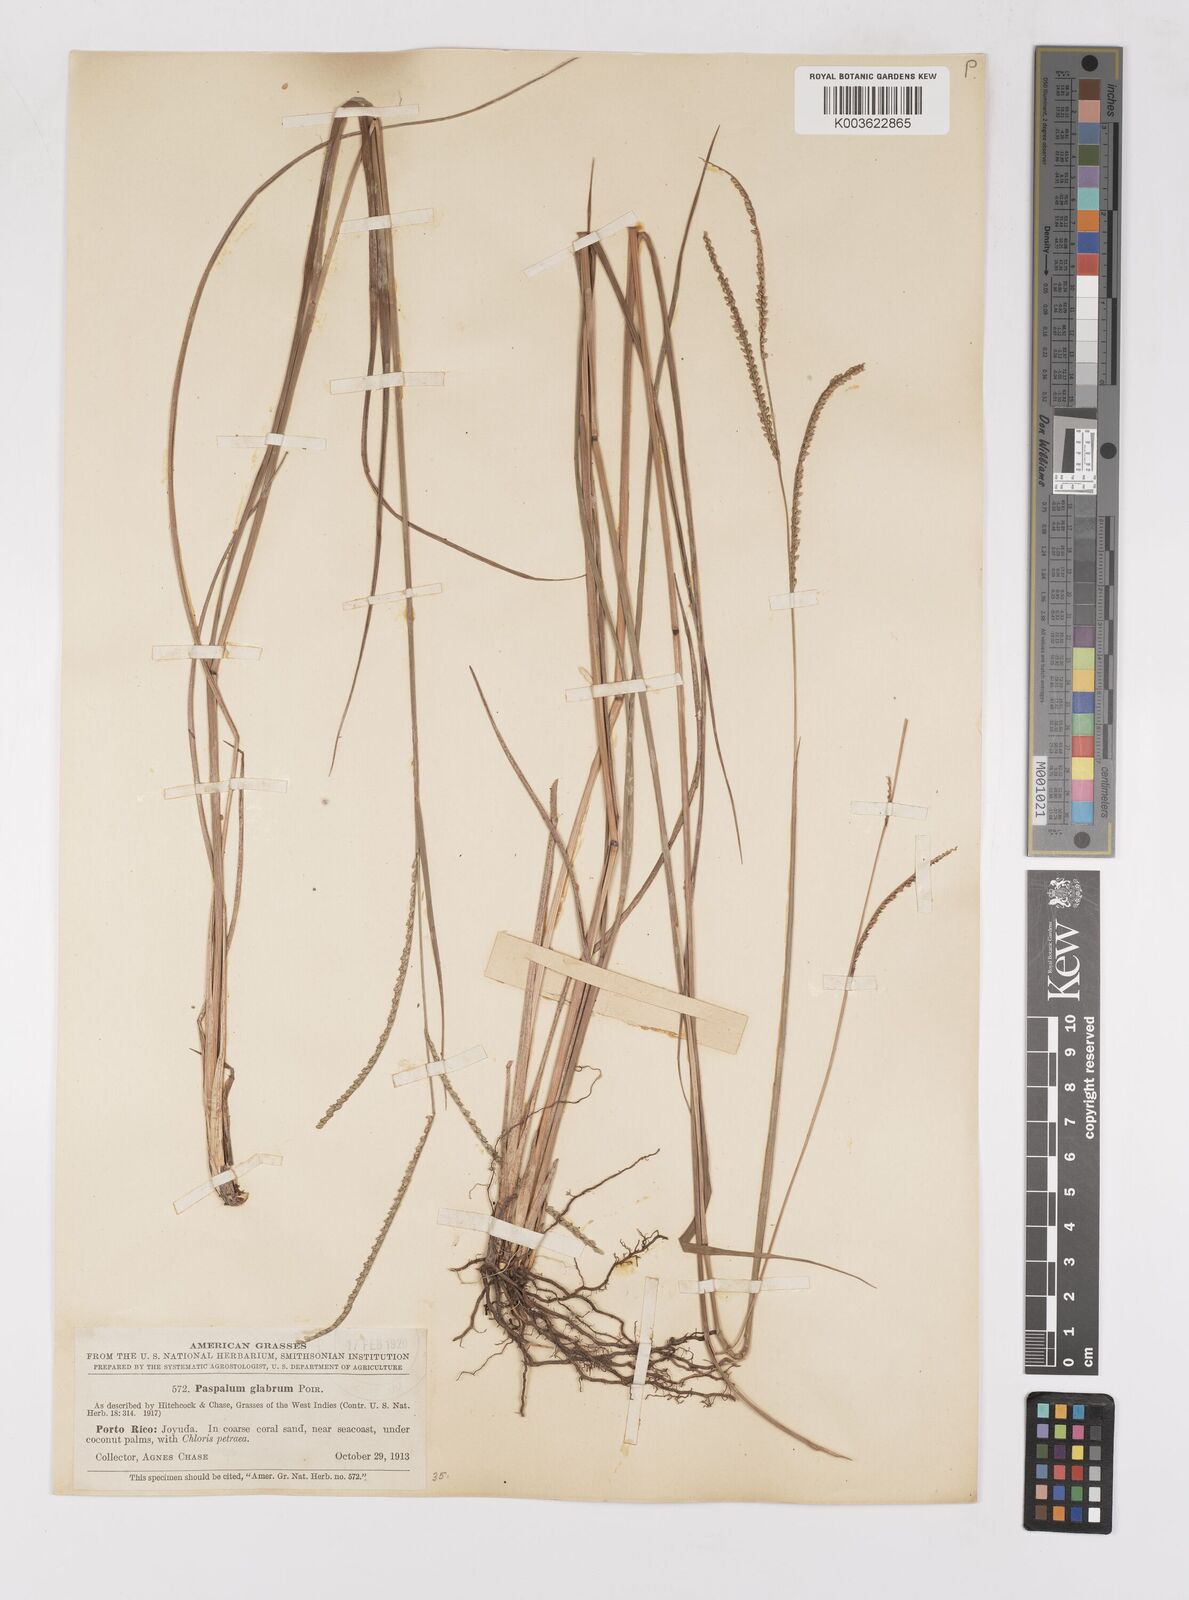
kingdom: Plantae
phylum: Tracheophyta
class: Liliopsida
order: Poales
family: Poaceae
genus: Paspalum
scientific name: Paspalum laxum
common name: Coconut paspalum
